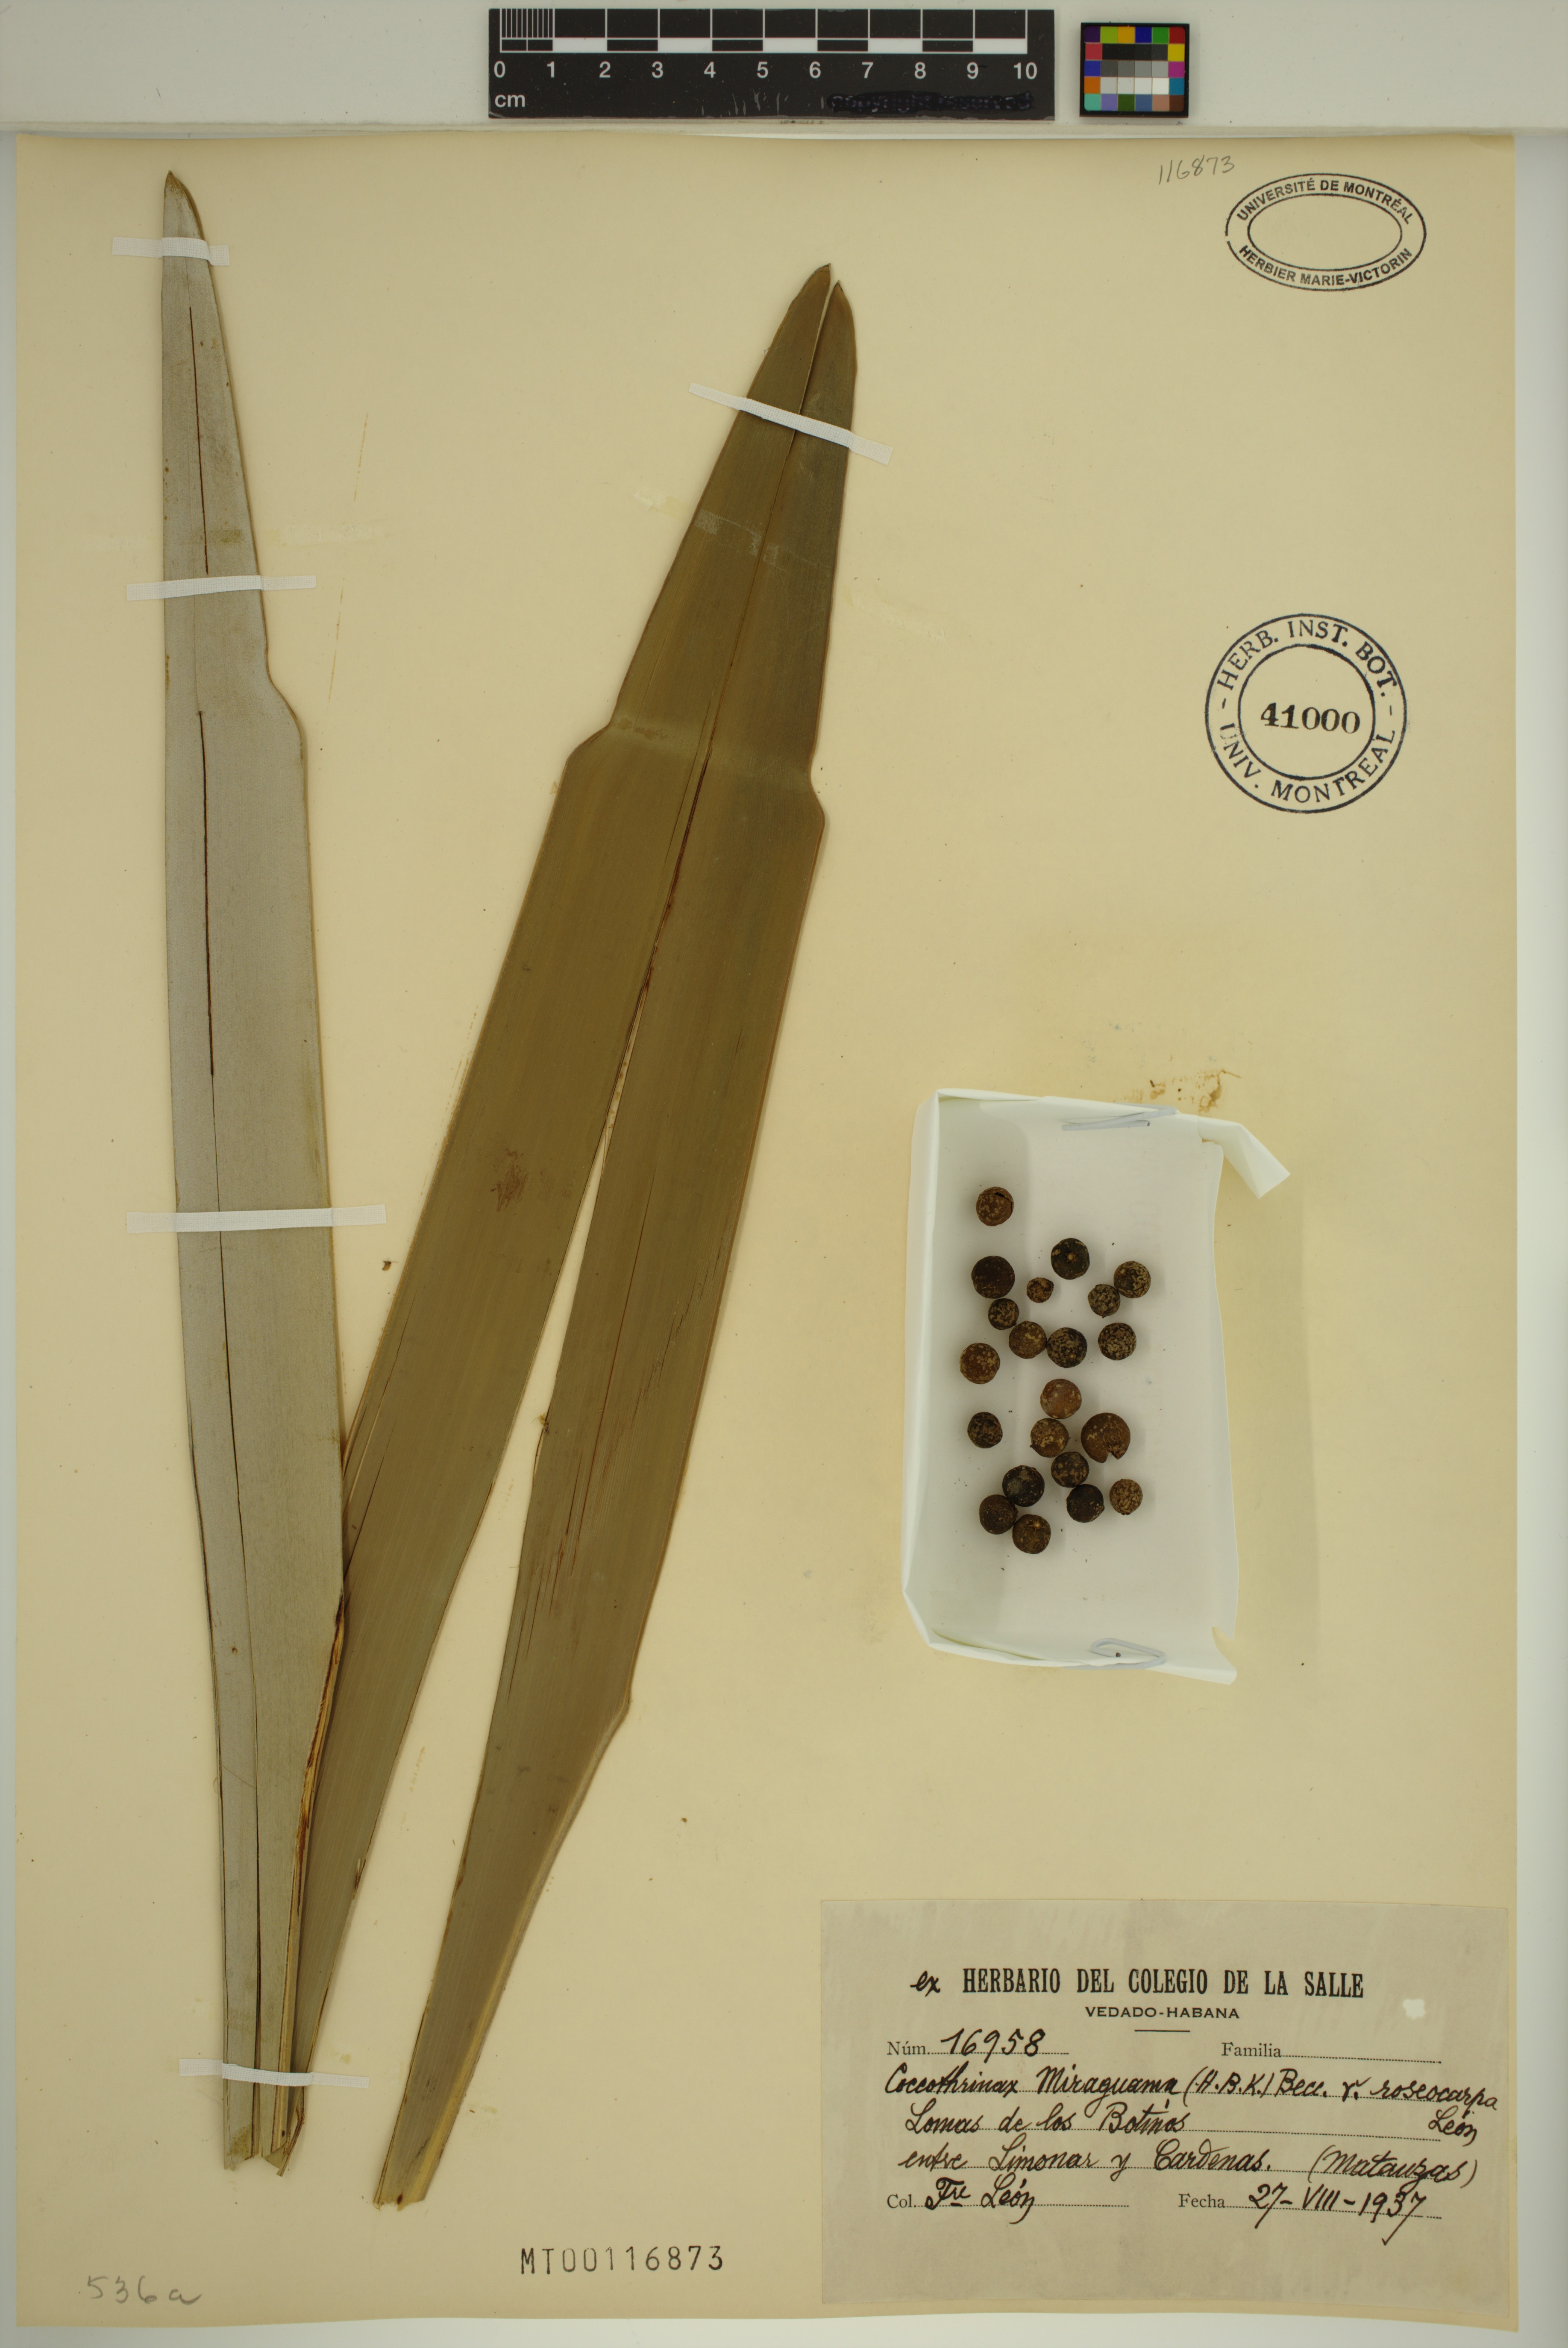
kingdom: Plantae
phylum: Tracheophyta
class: Liliopsida
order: Arecales
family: Arecaceae
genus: Coccothrinax
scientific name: Coccothrinax miraguama
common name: Miragua palm
